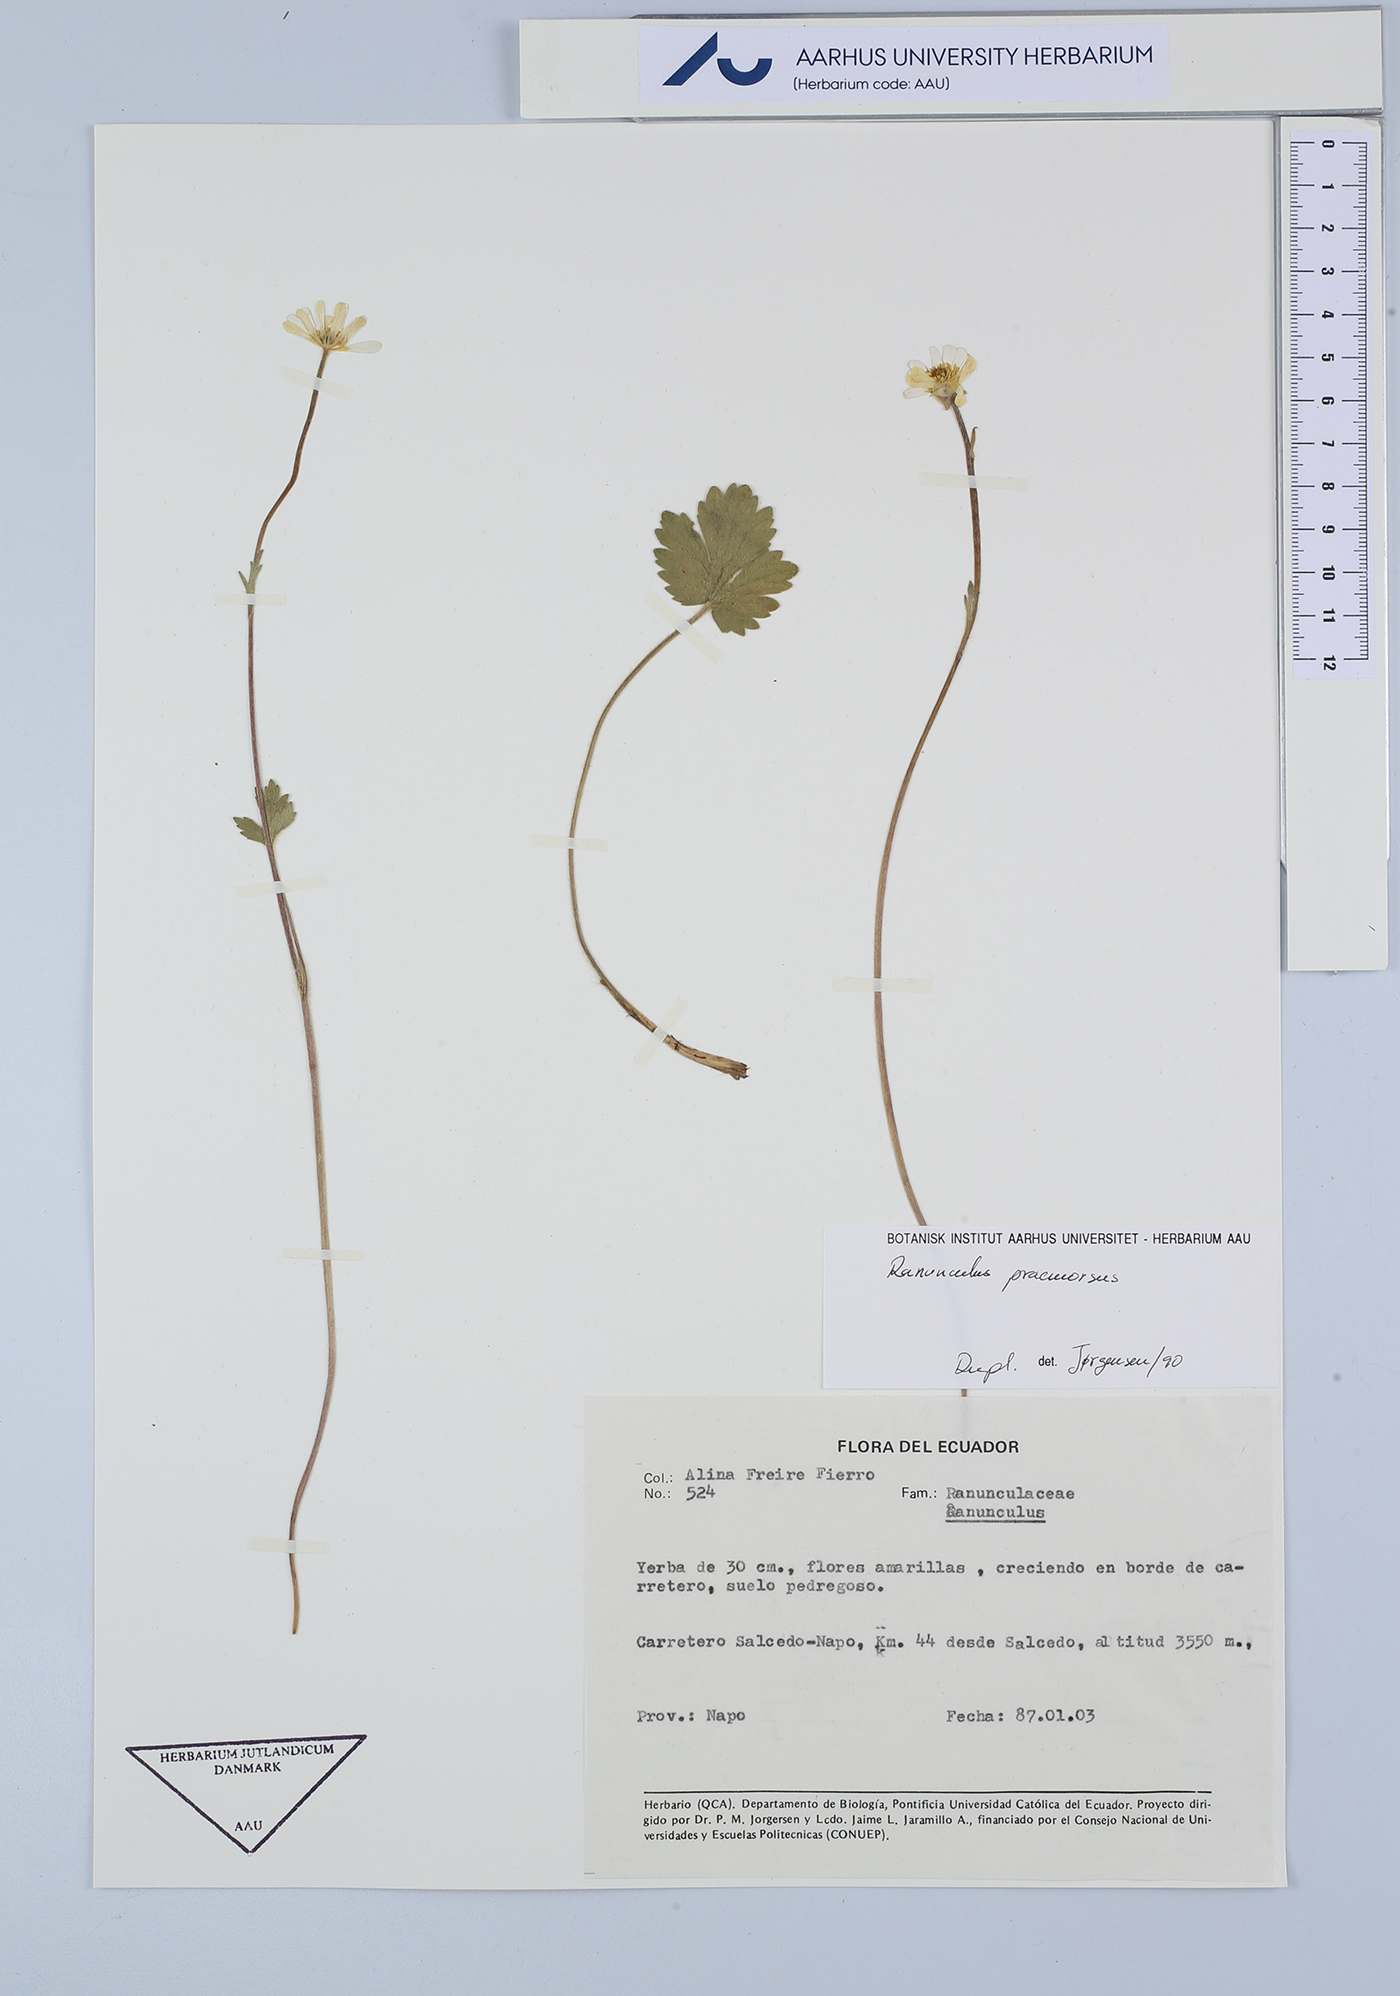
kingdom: Plantae
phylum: Tracheophyta
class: Magnoliopsida
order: Ranunculales
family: Ranunculaceae
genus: Ranunculus
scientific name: Ranunculus praemorsus
